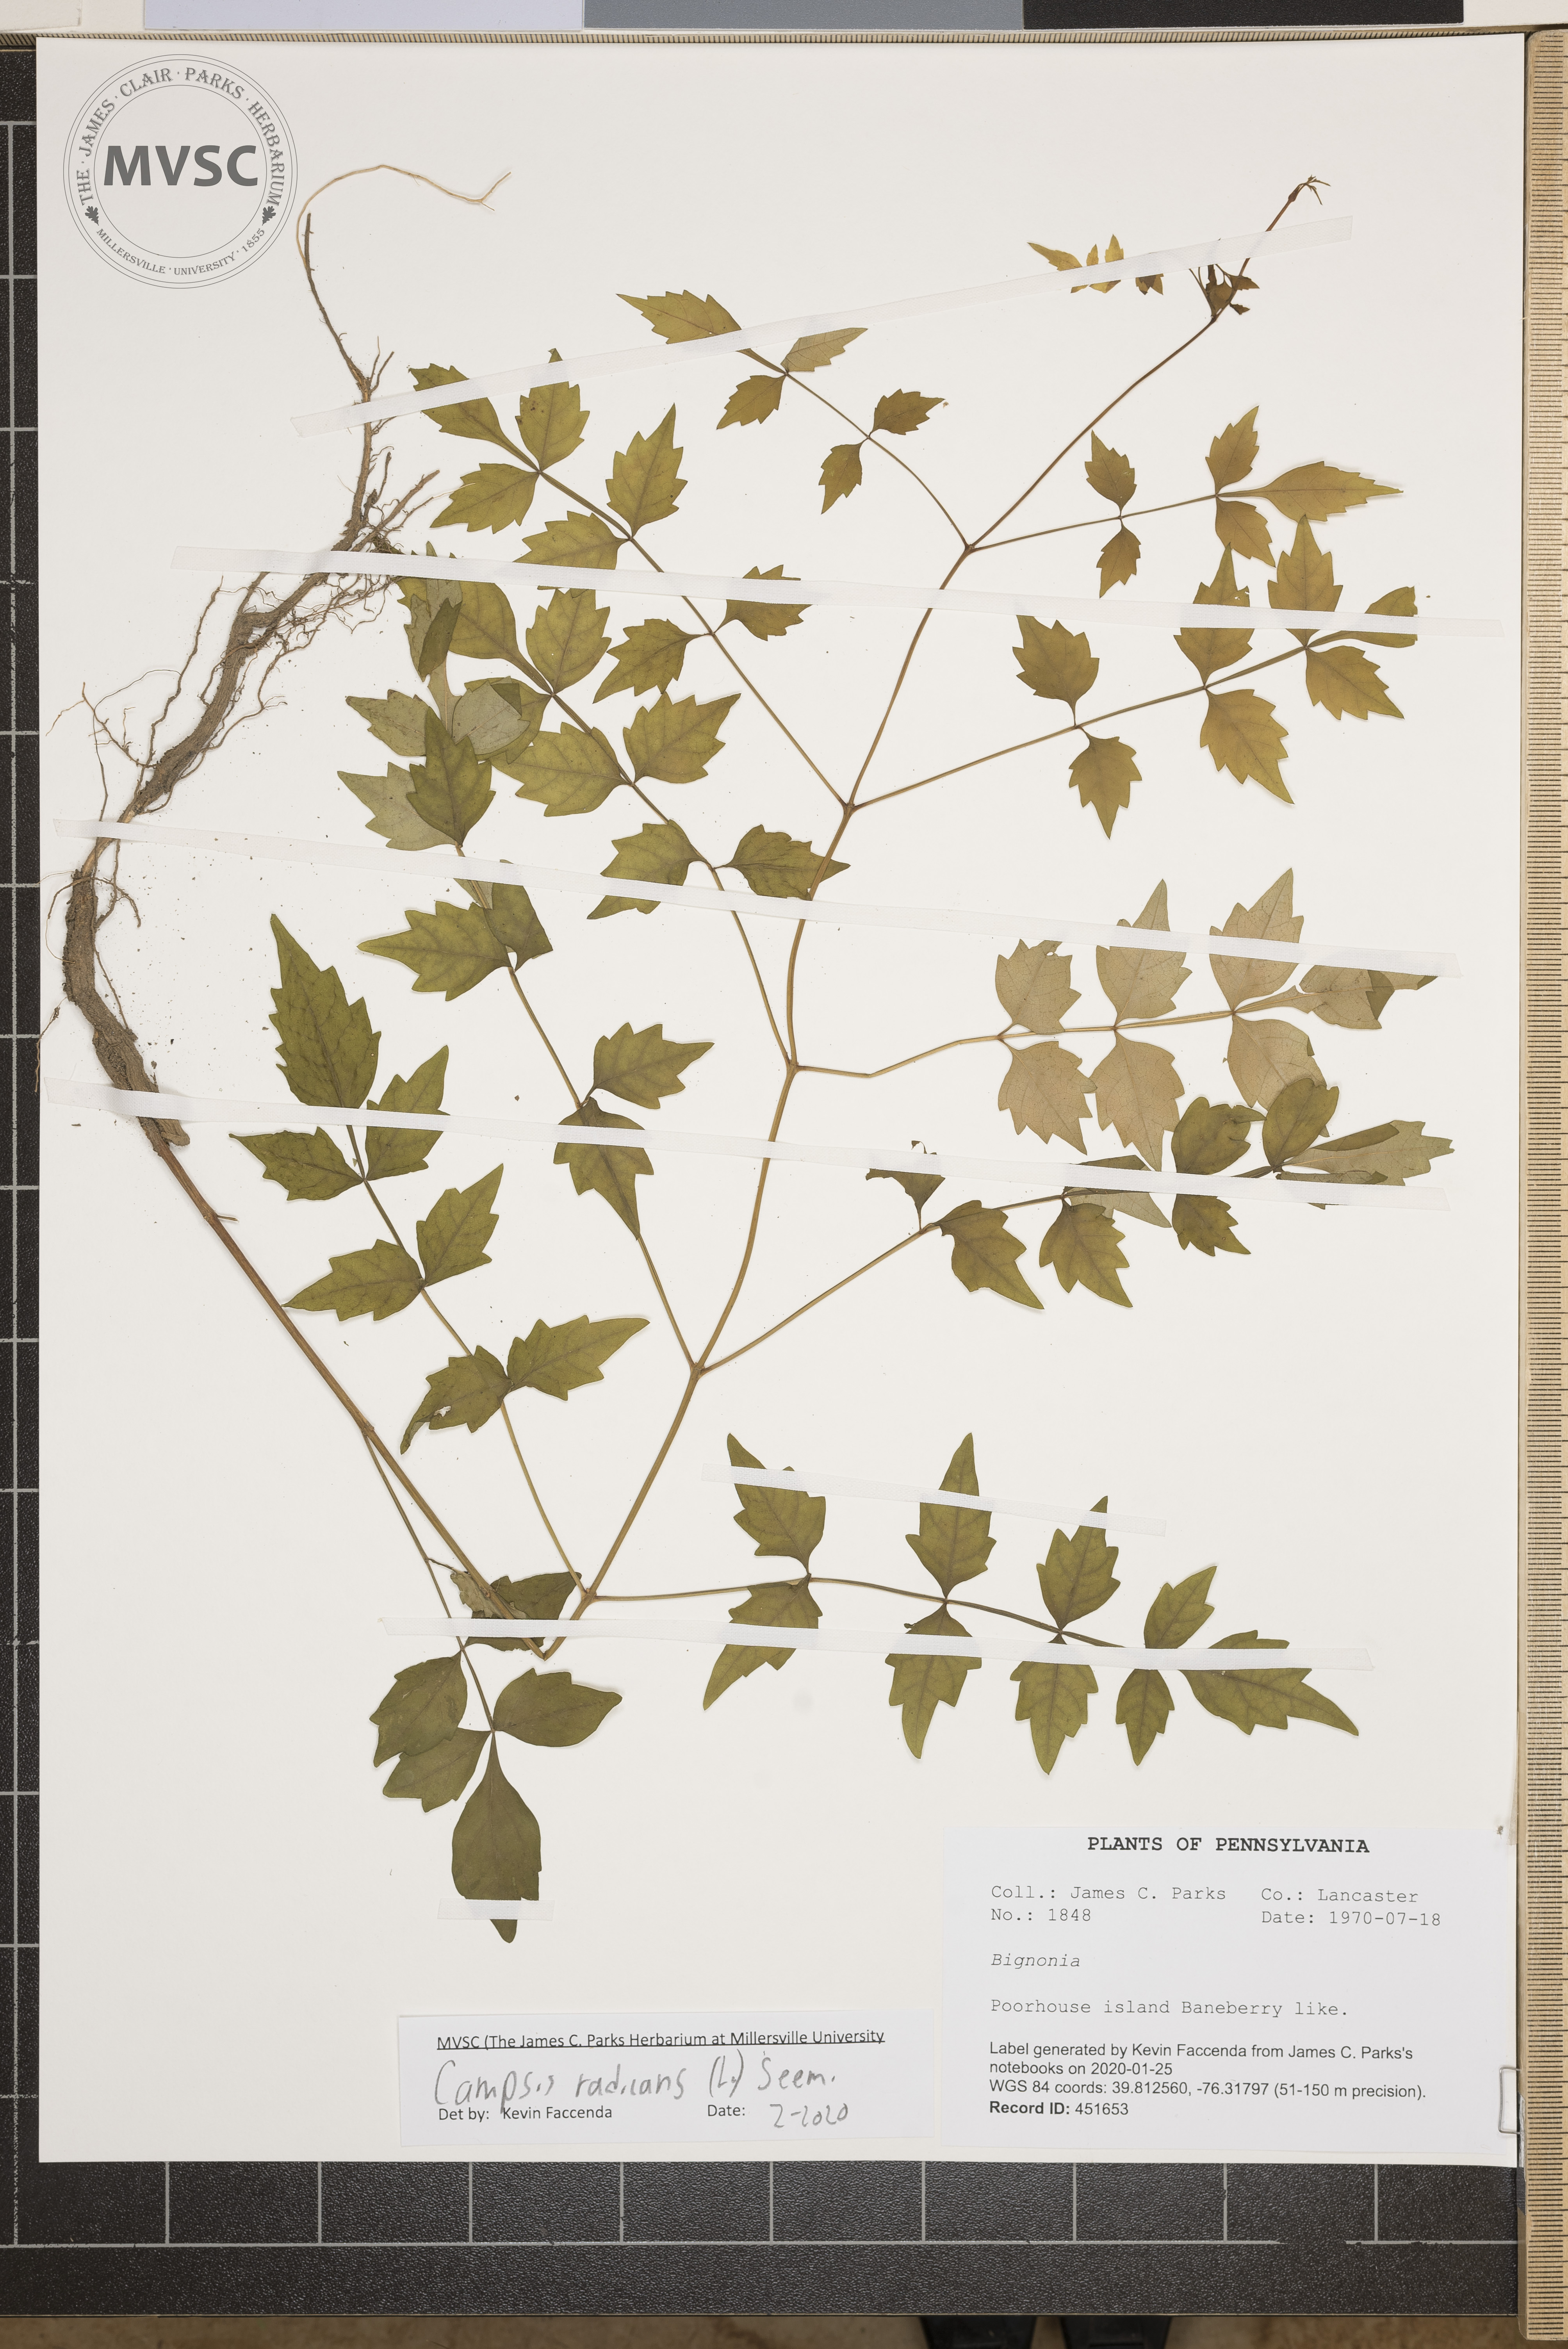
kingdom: Plantae
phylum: Tracheophyta
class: Magnoliopsida
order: Lamiales
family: Bignoniaceae
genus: Campsis
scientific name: Campsis radicans
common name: Trumpet-creeper
